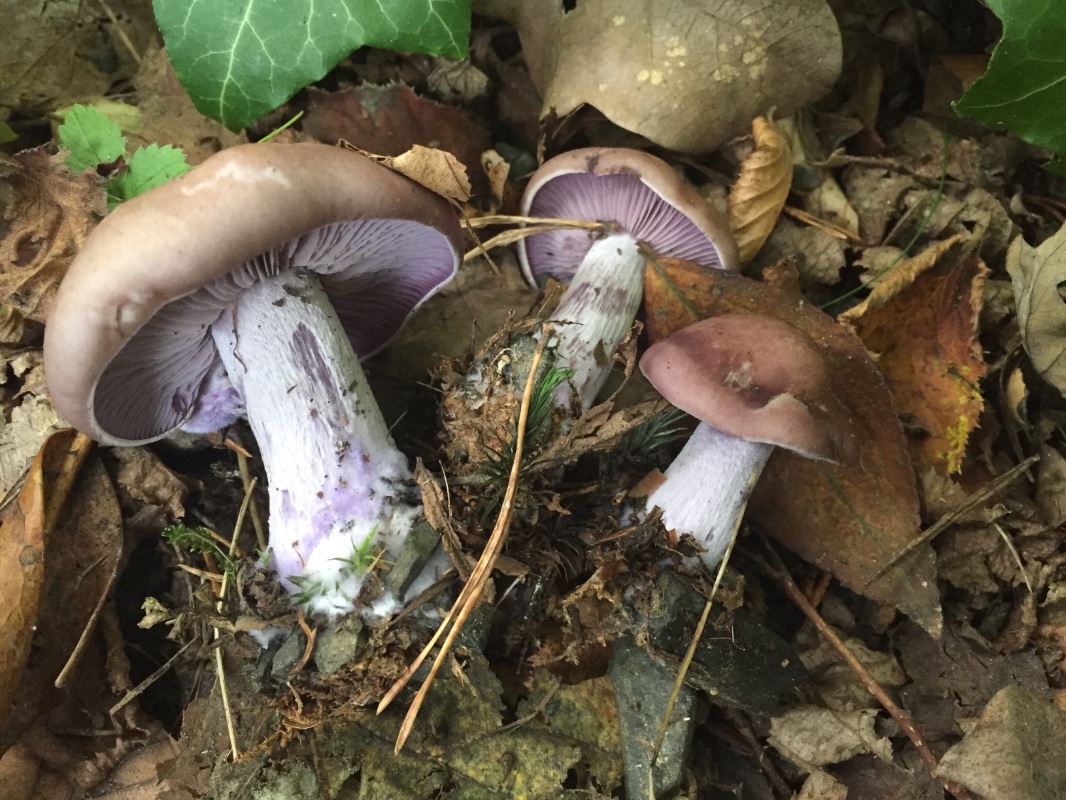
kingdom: Fungi
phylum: Basidiomycota
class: Agaricomycetes
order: Agaricales
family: Tricholomataceae
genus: Lepista
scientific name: Lepista nuda
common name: violet hekseringshat
